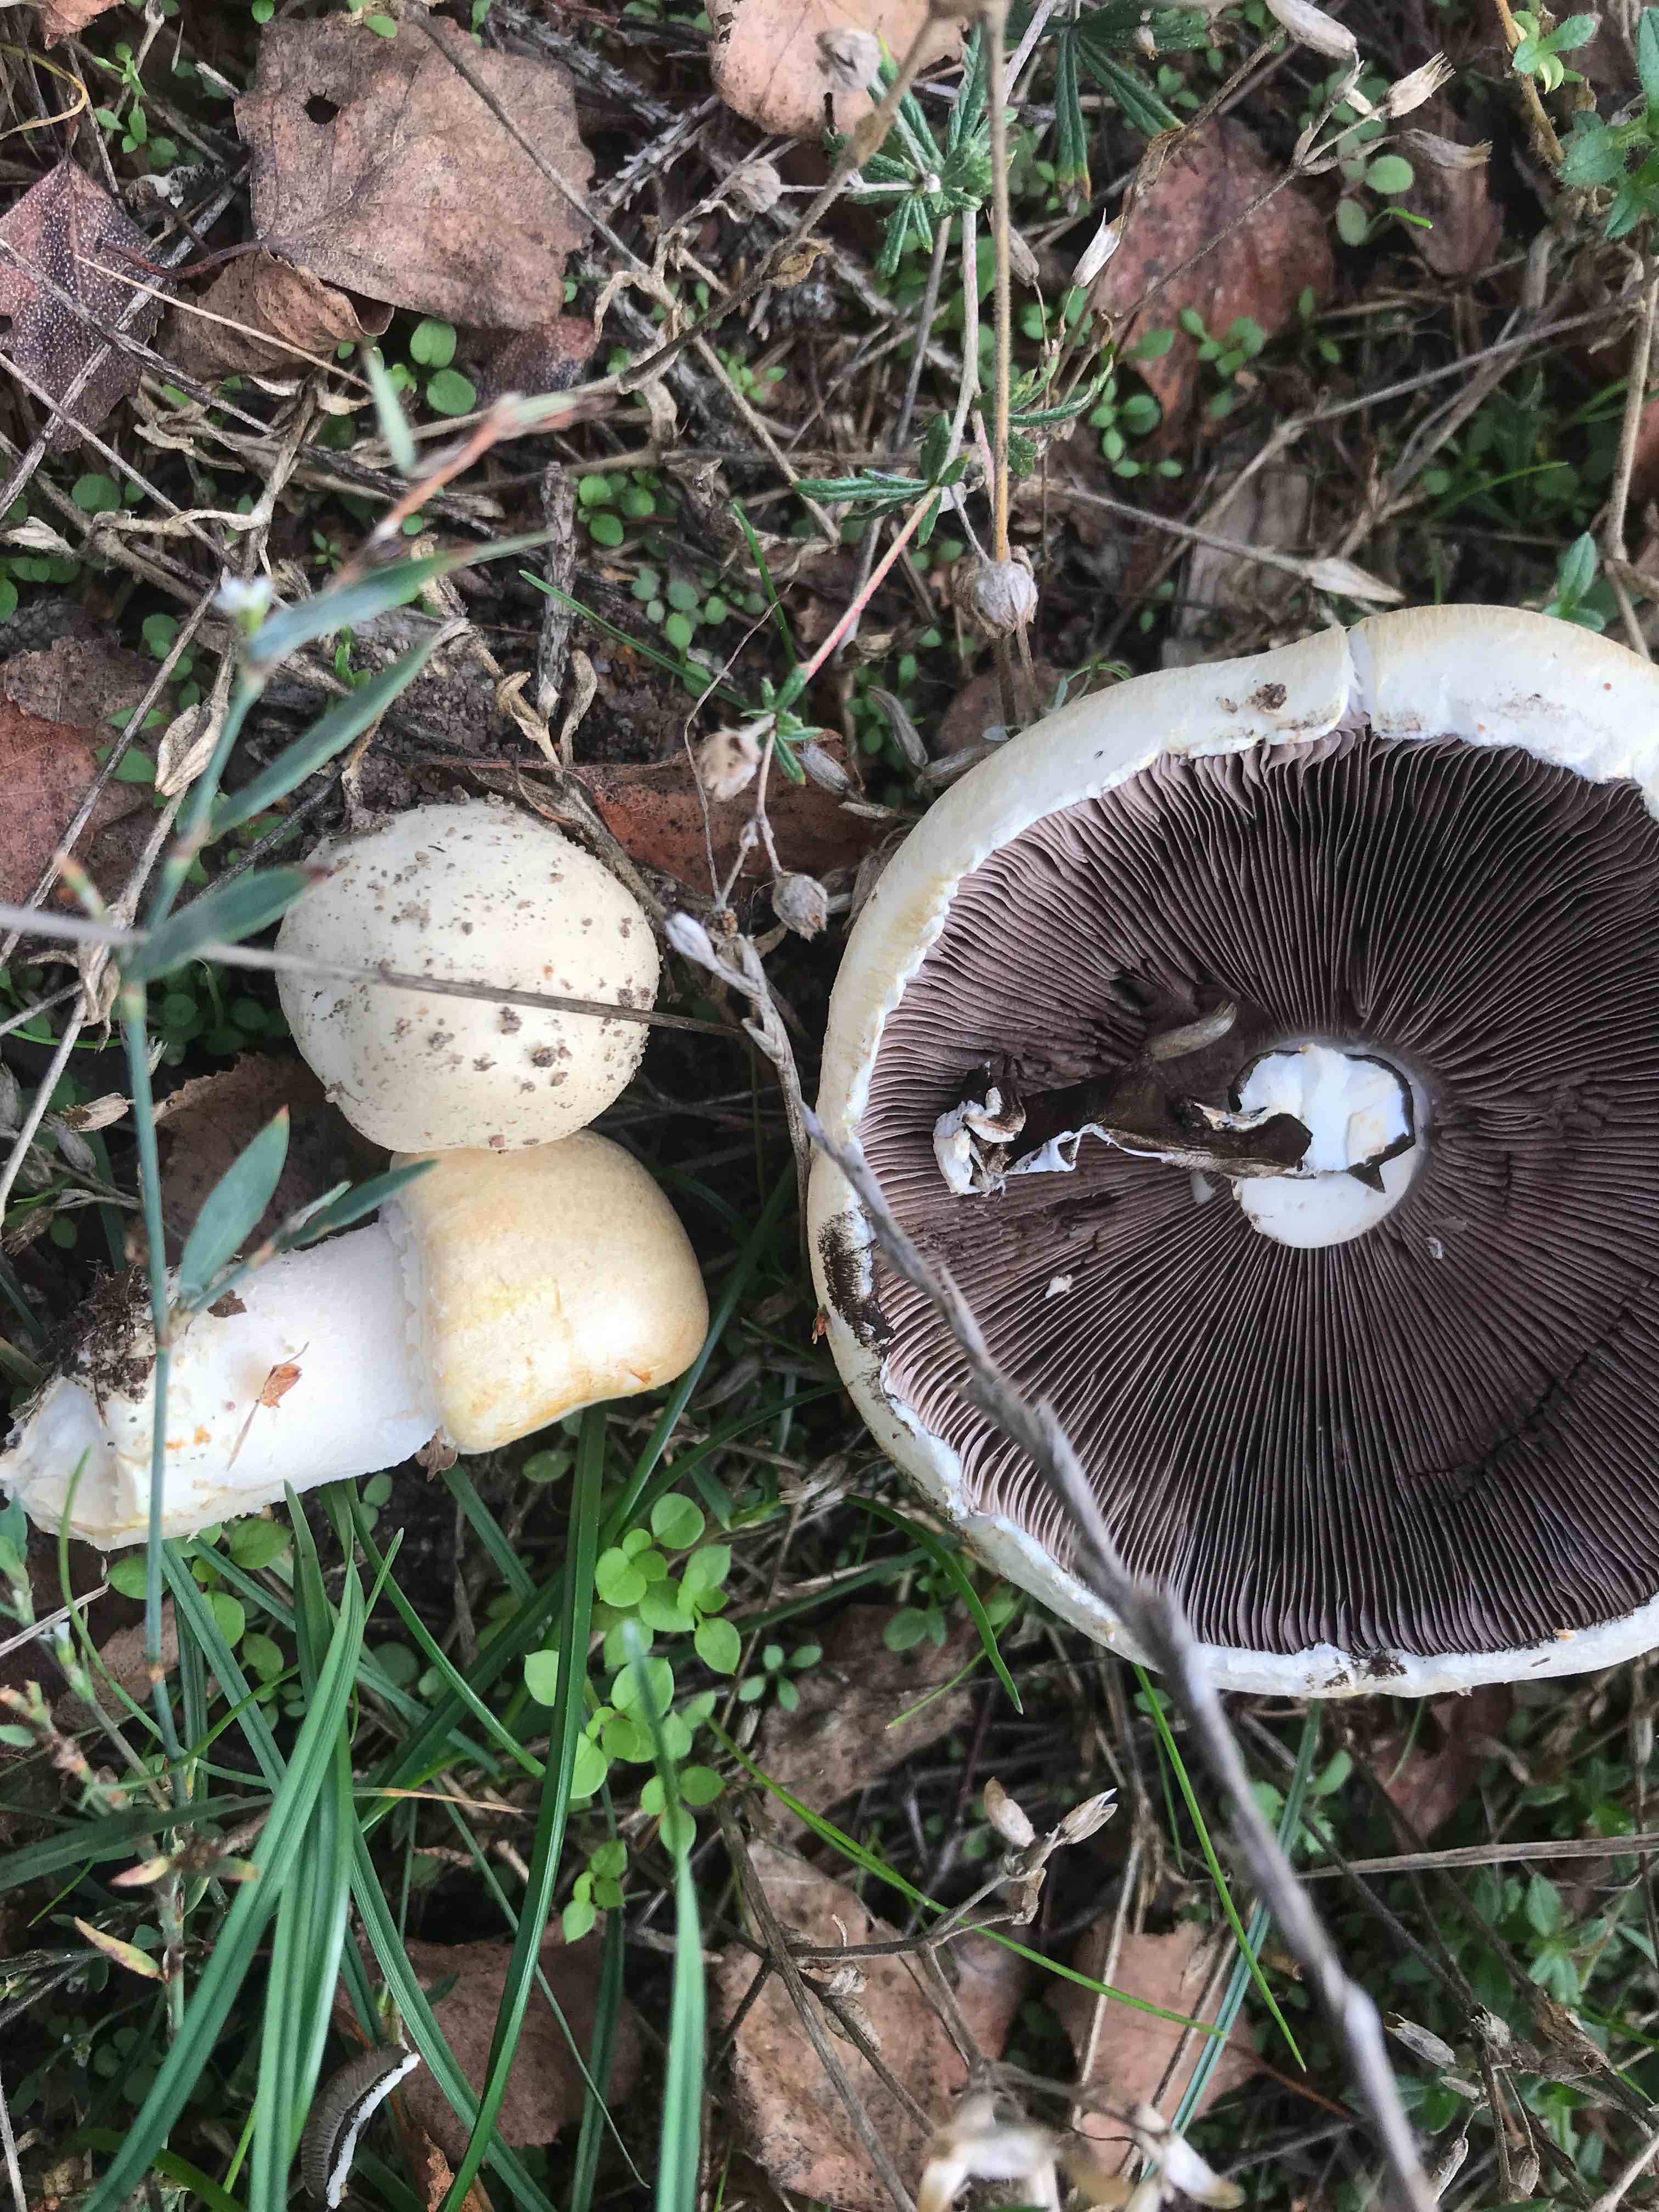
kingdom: Fungi
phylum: Basidiomycota
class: Agaricomycetes
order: Agaricales
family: Agaricaceae
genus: Agaricus
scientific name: Agaricus arvensis
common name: ager-champignon
